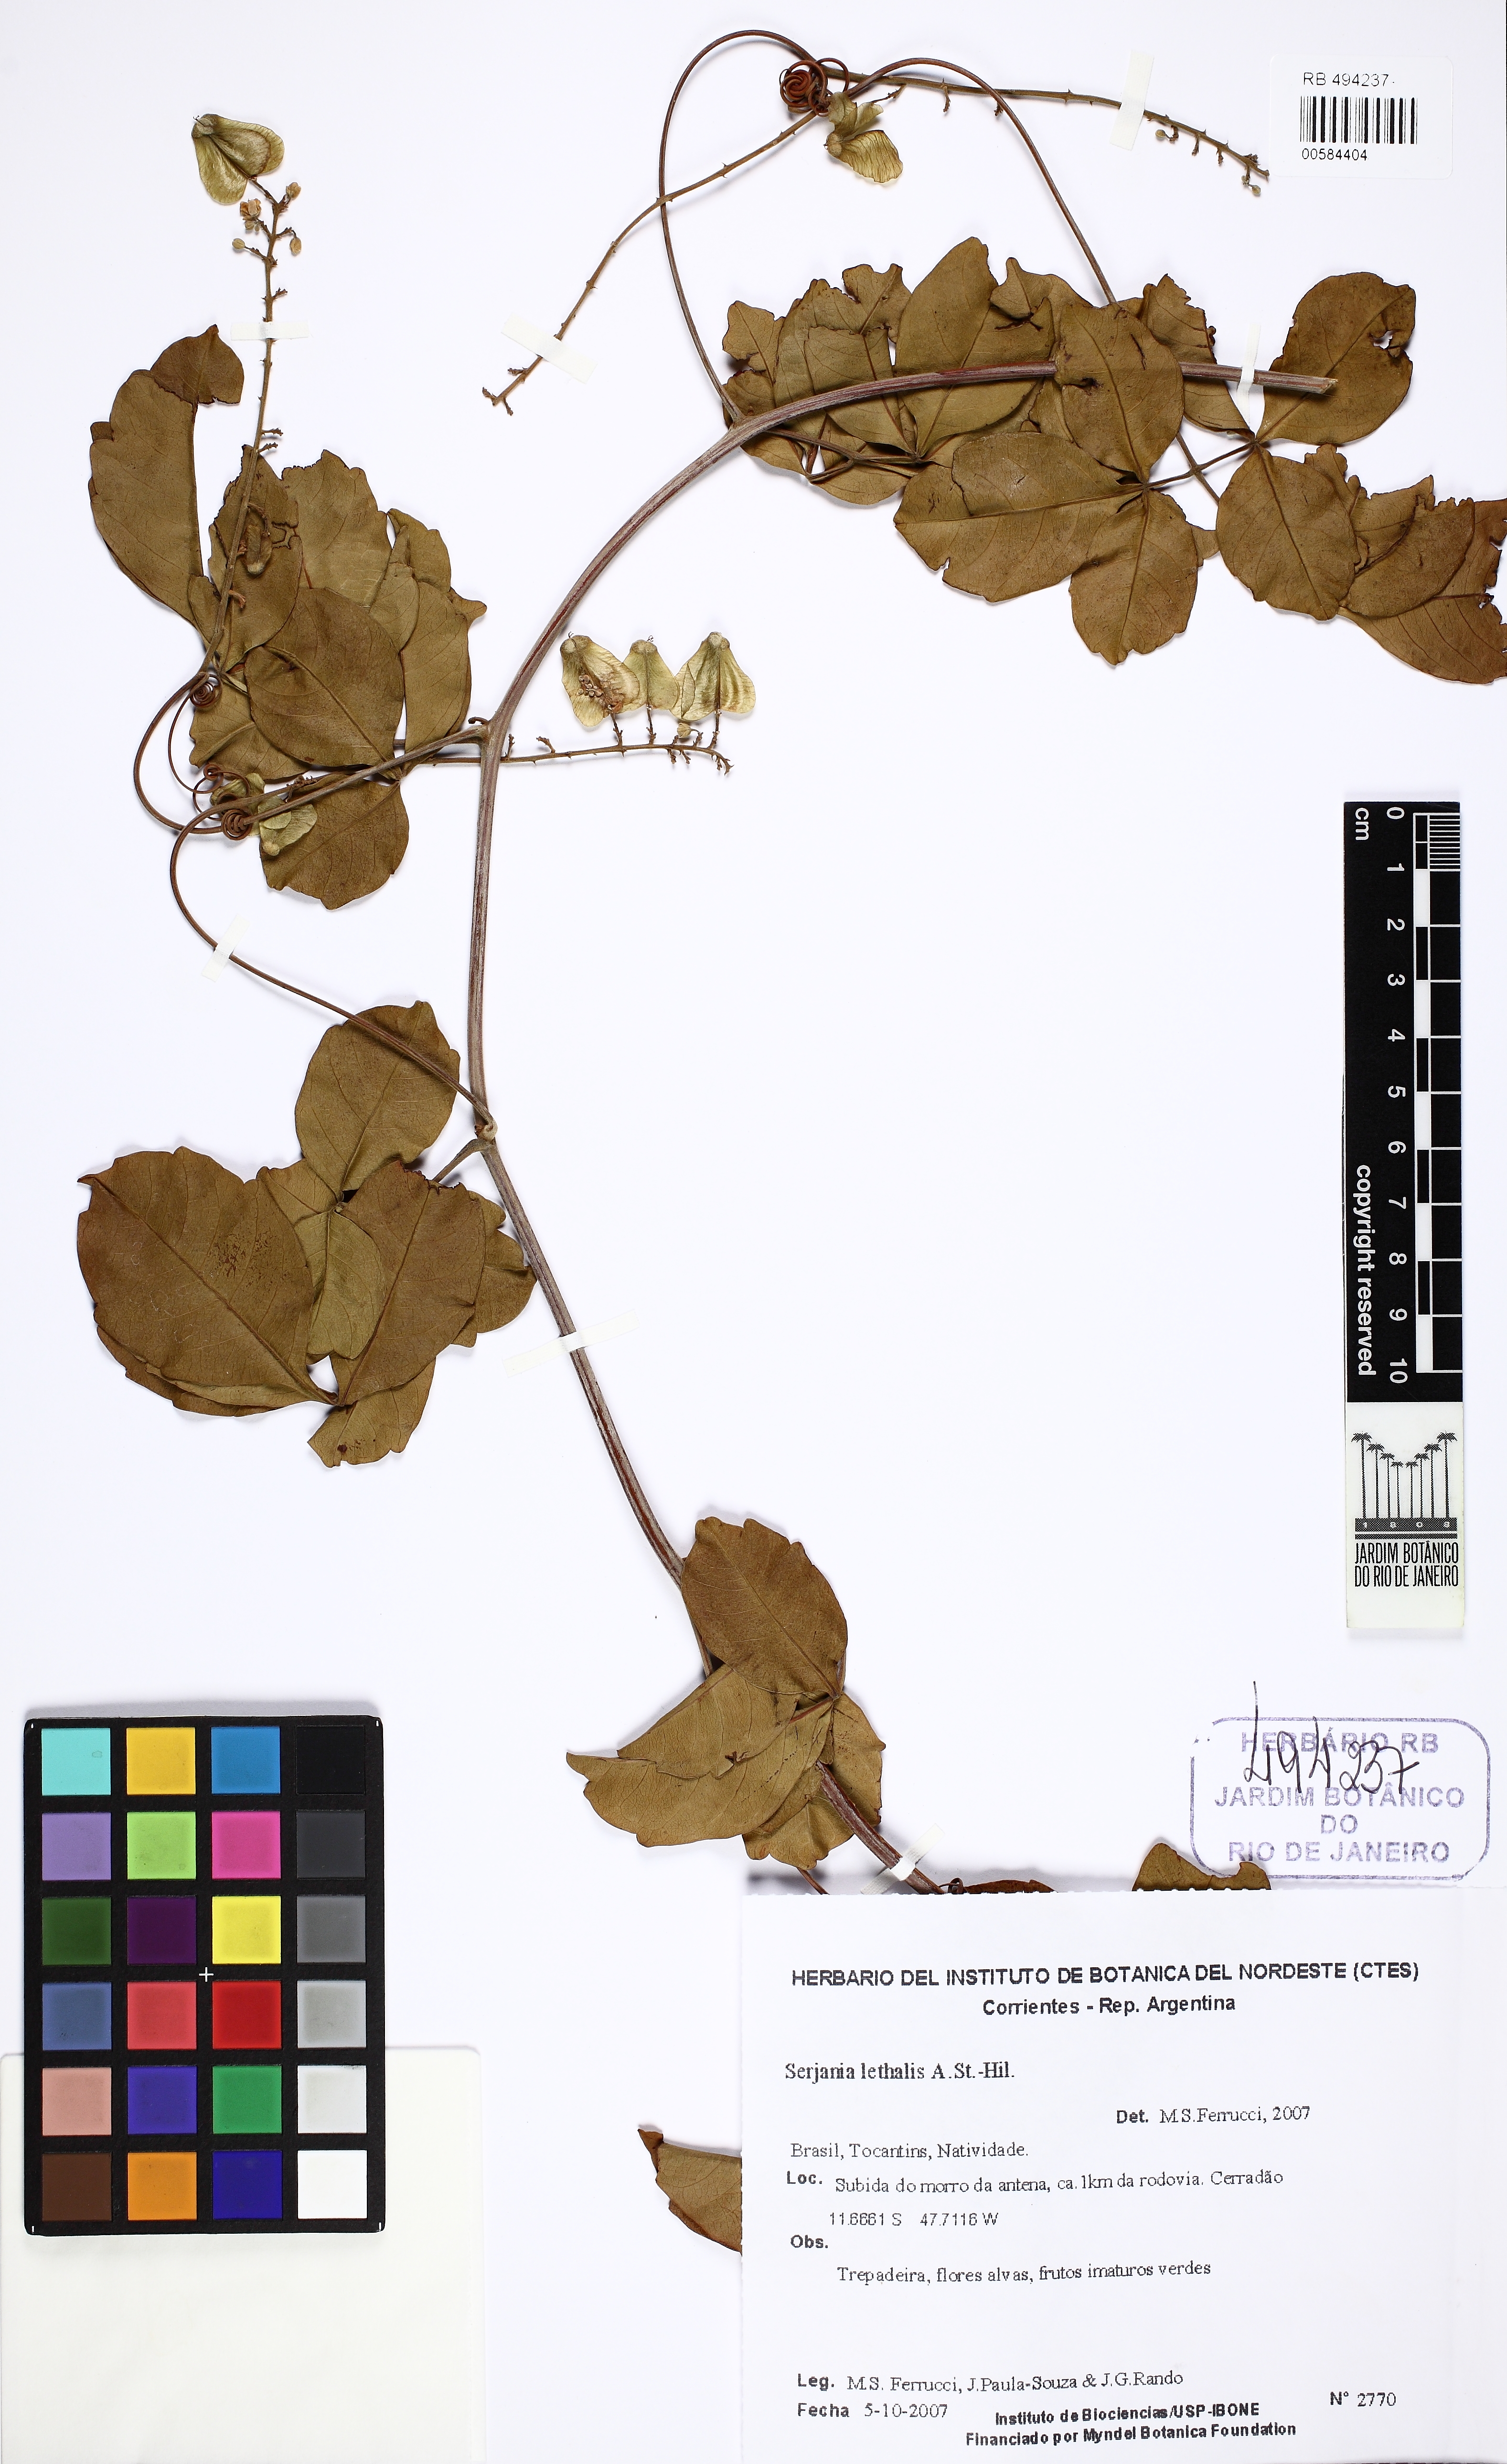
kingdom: Plantae
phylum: Tracheophyta
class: Magnoliopsida
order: Sapindales
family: Sapindaceae
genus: Serjania
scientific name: Serjania lethalis
